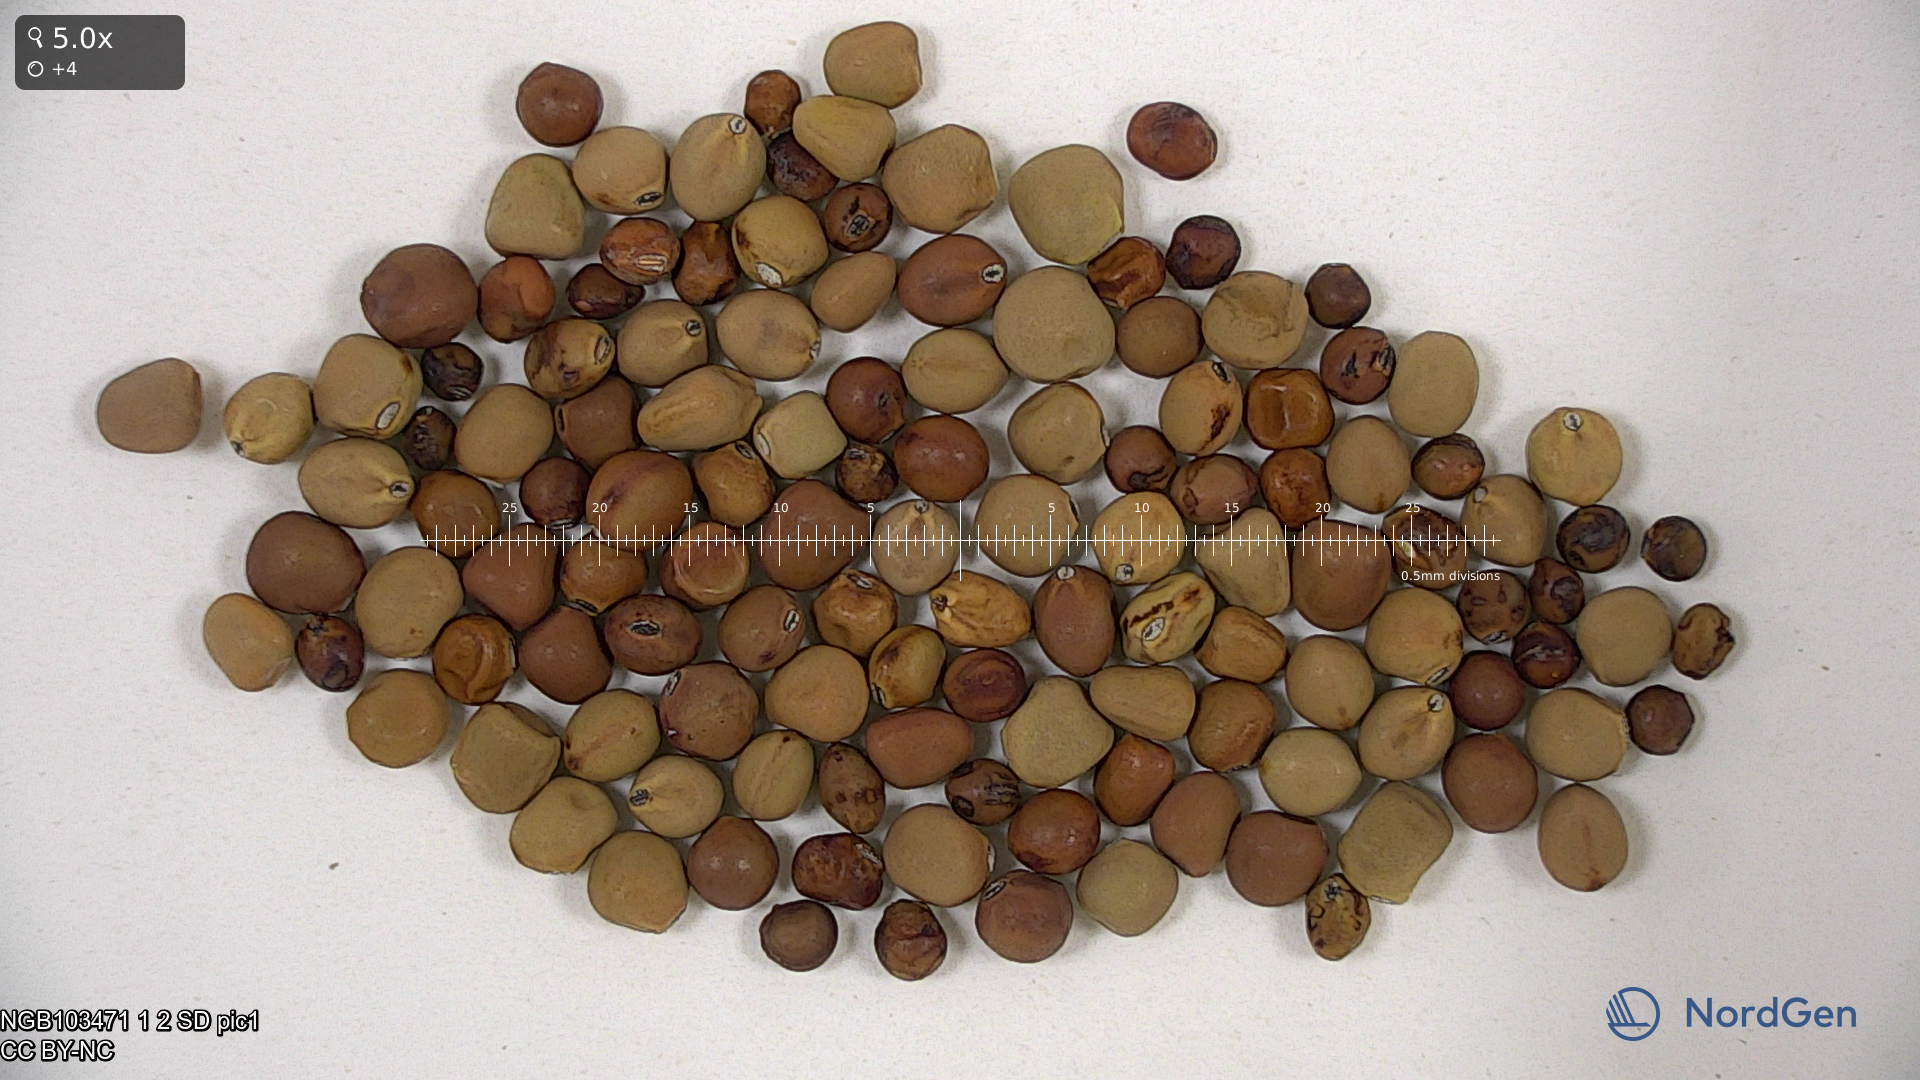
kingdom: Plantae
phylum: Tracheophyta
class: Magnoliopsida
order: Fabales
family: Fabaceae
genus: Lathyrus
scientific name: Lathyrus oleraceus
